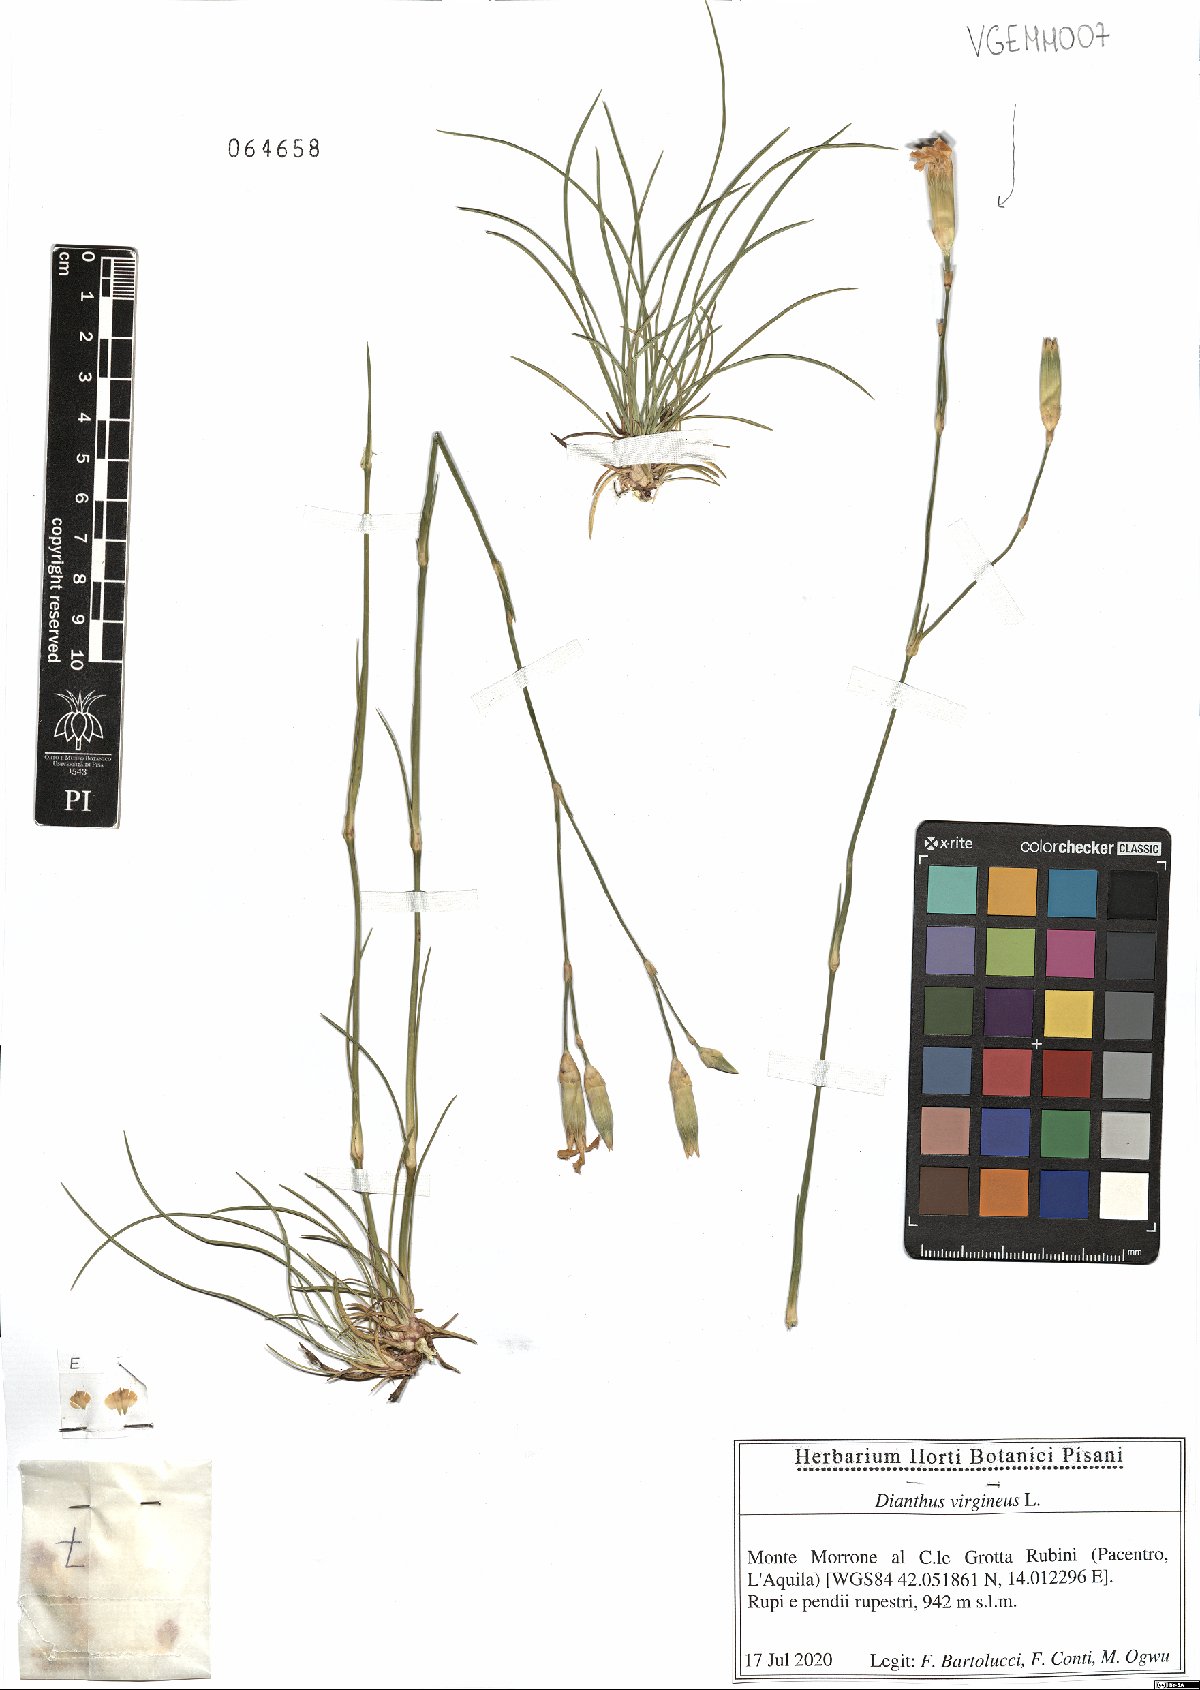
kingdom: Plantae
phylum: Tracheophyta
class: Magnoliopsida
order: Caryophyllales
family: Caryophyllaceae
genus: Dianthus
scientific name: Dianthus virgineus
